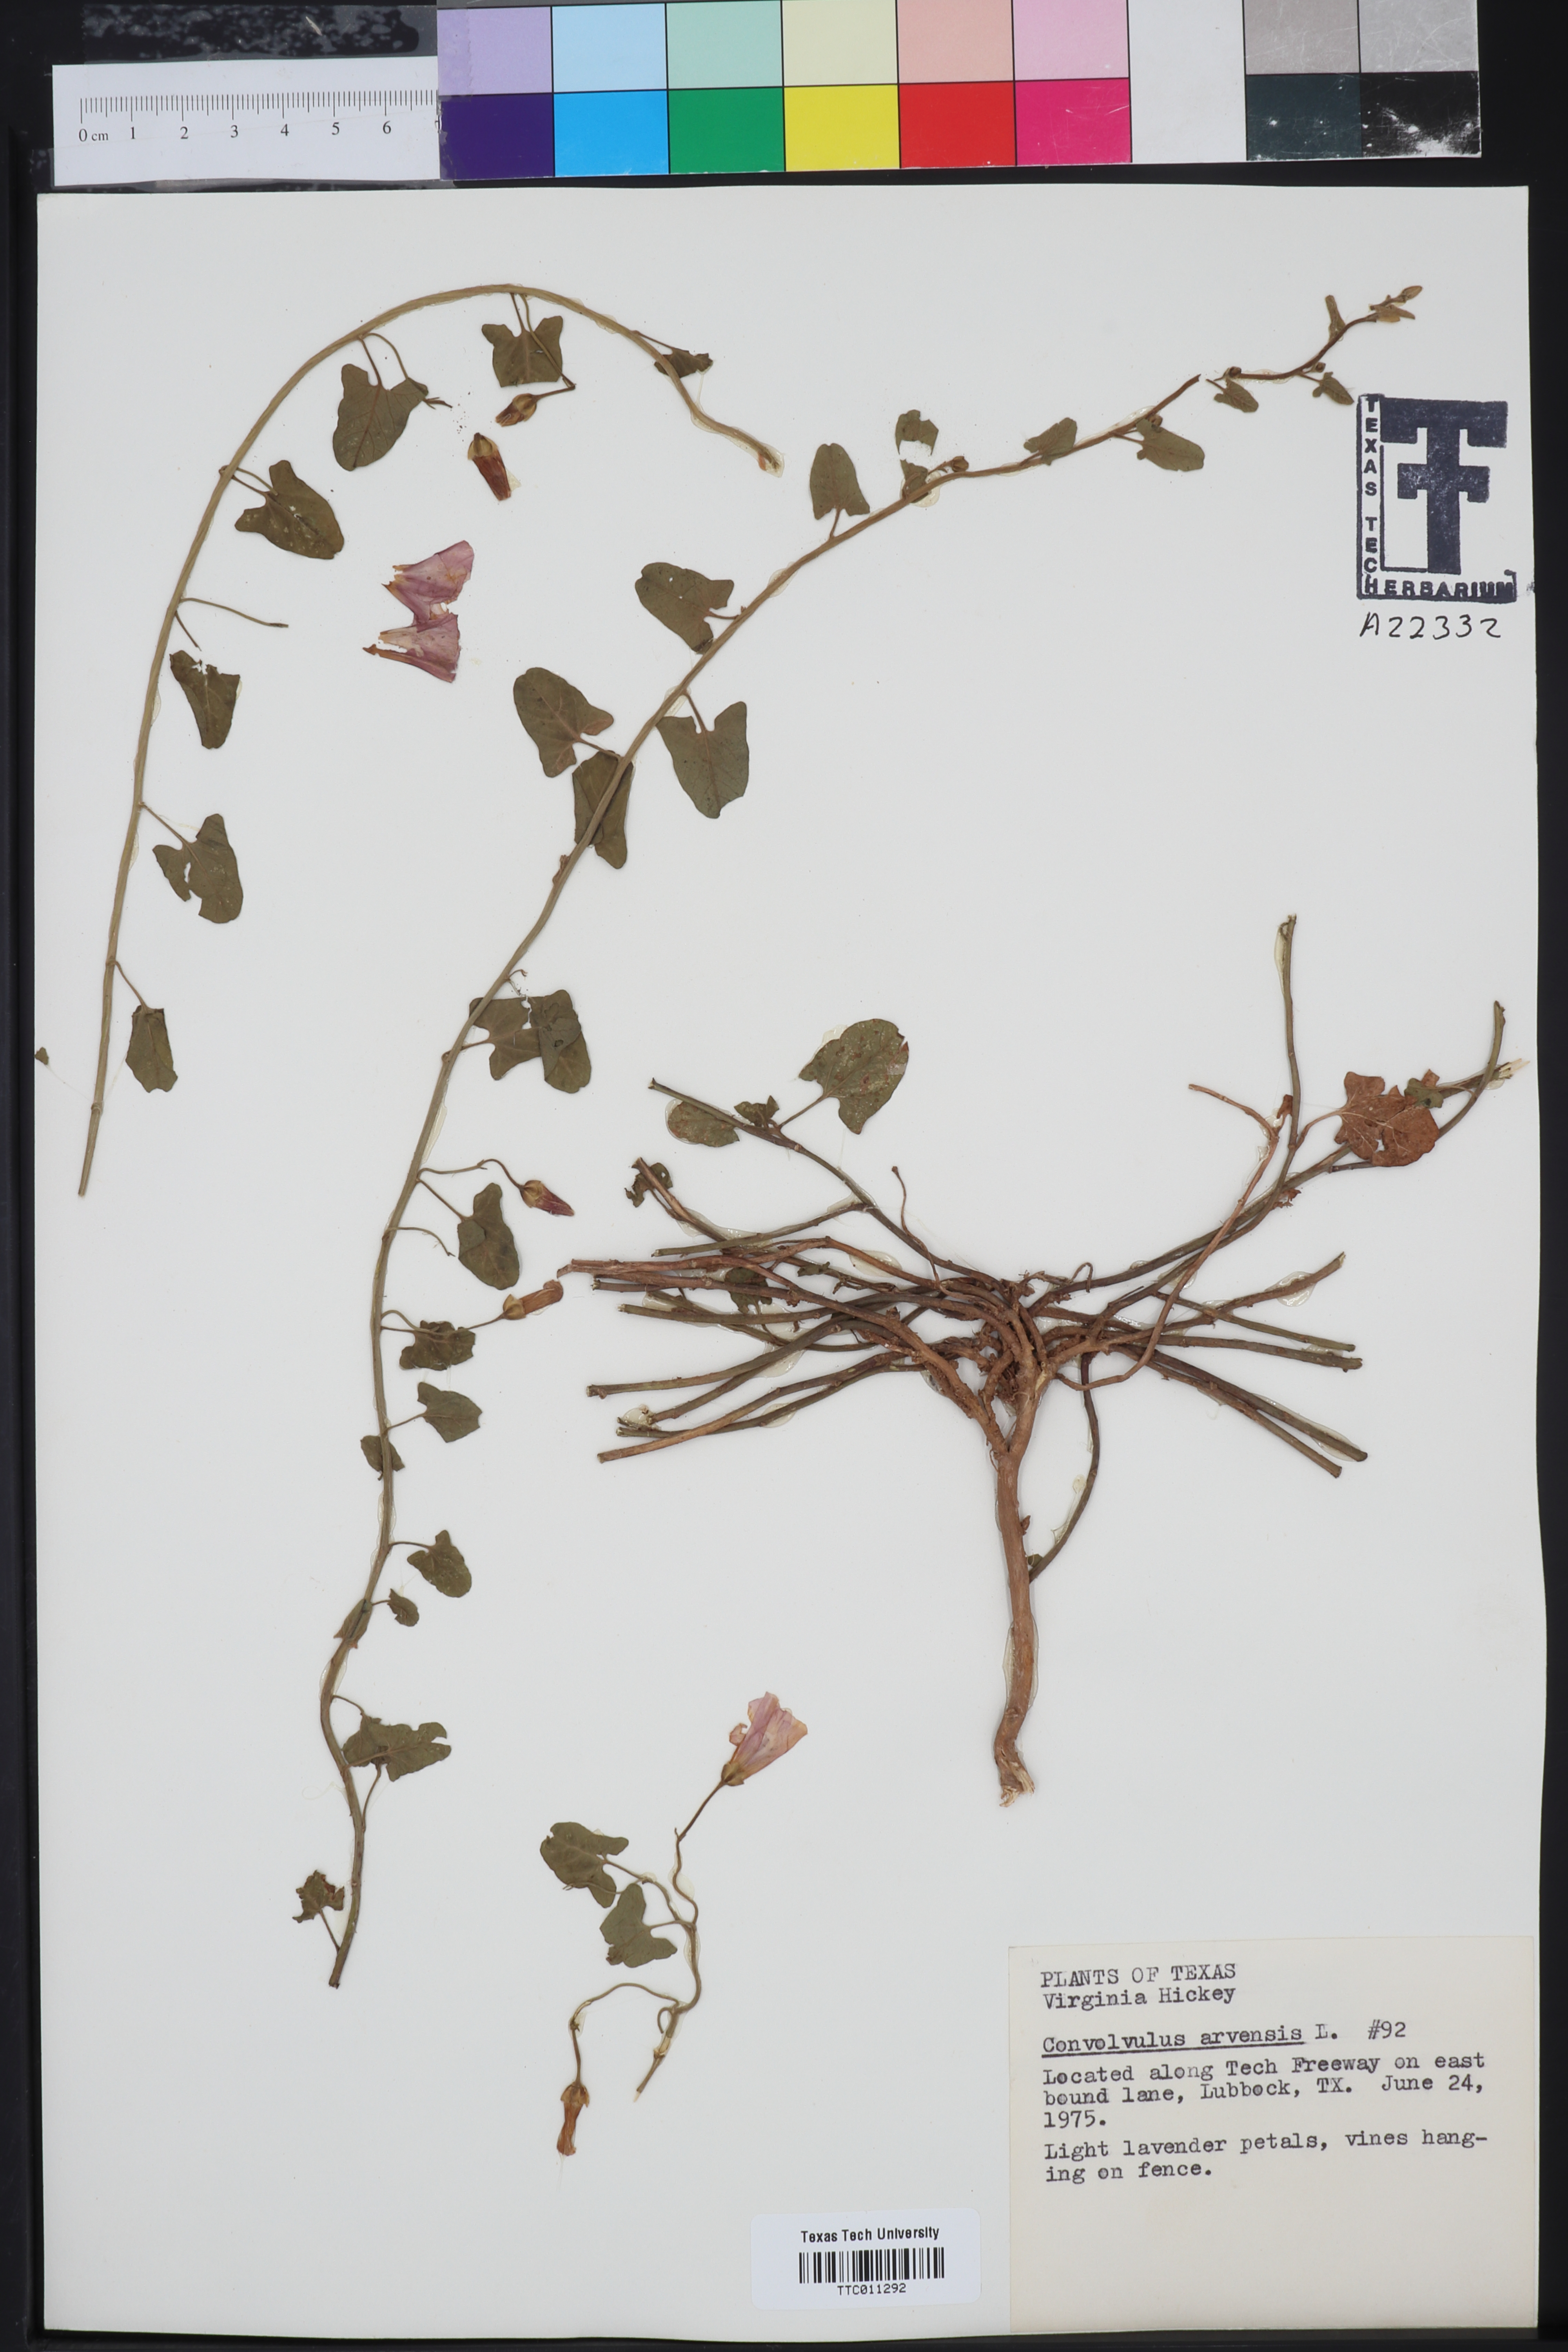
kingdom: Plantae
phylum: Tracheophyta
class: Magnoliopsida
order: Solanales
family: Convolvulaceae
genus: Convolvulus
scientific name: Convolvulus arvensis
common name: Field bindweed
